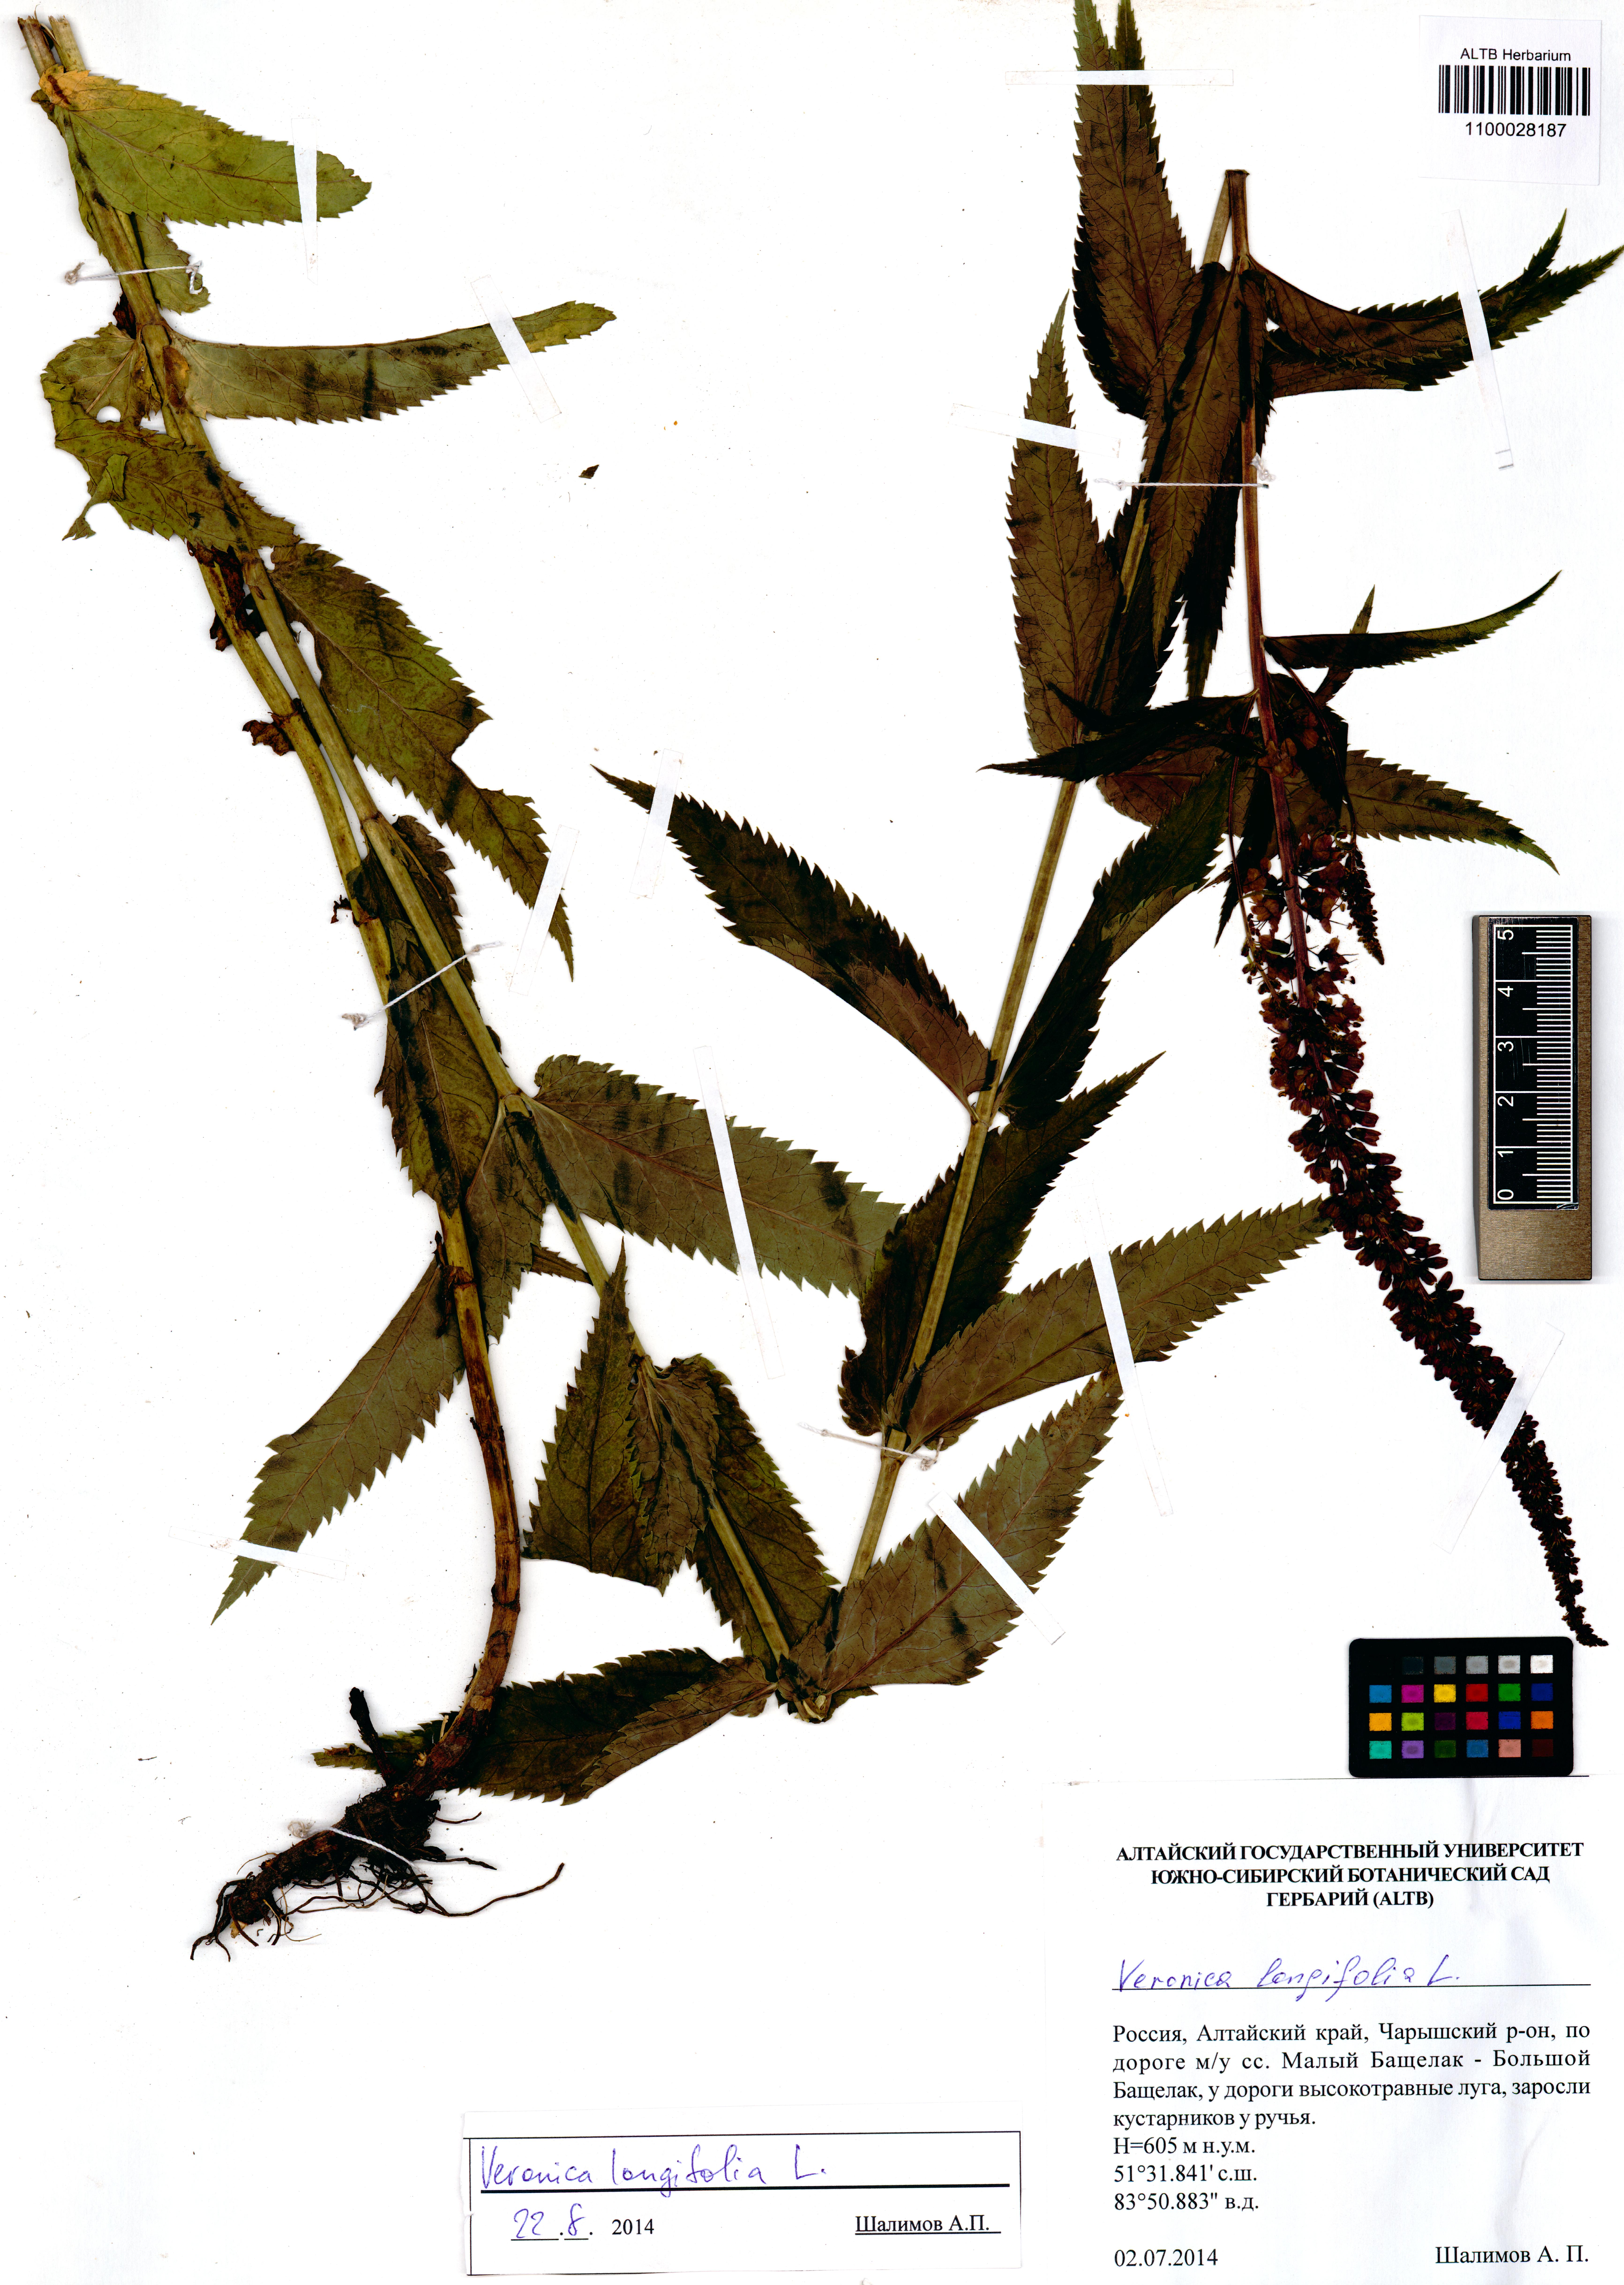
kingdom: Plantae
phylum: Tracheophyta
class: Magnoliopsida
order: Lamiales
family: Plantaginaceae
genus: Veronica
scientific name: Veronica longifolia
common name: Garden speedwell
